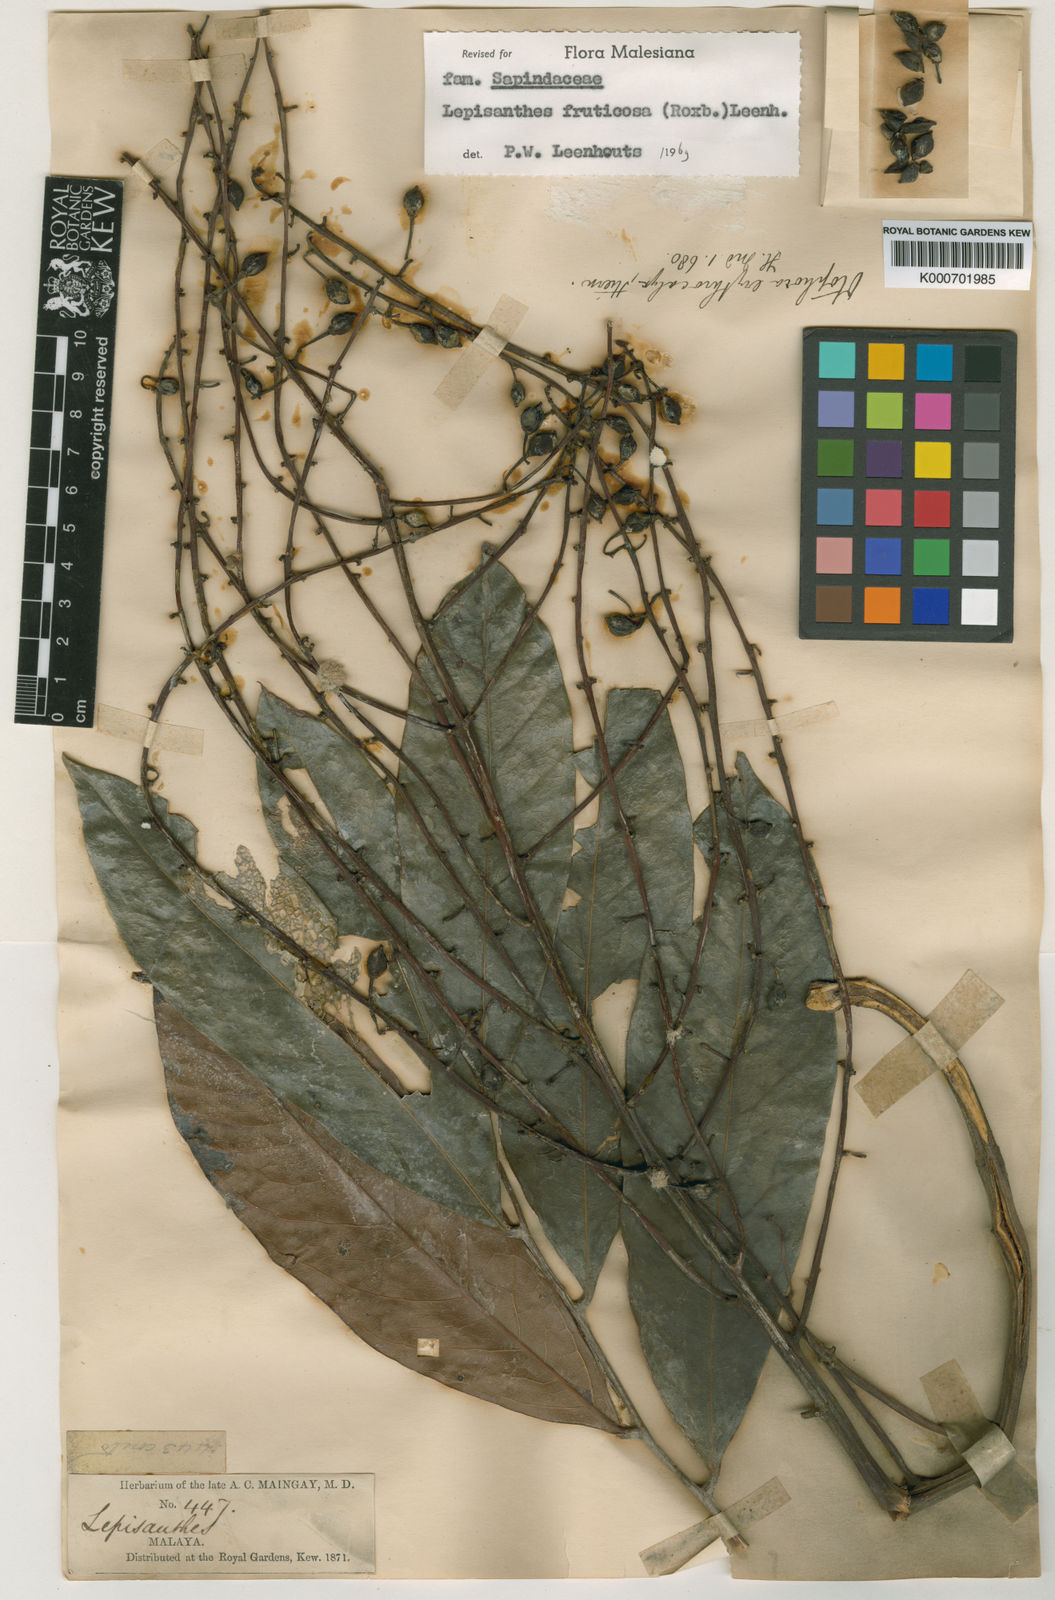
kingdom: Plantae
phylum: Tracheophyta
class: Magnoliopsida
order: Sapindales
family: Sapindaceae
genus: Lepisanthes
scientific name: Lepisanthes fruticosa
